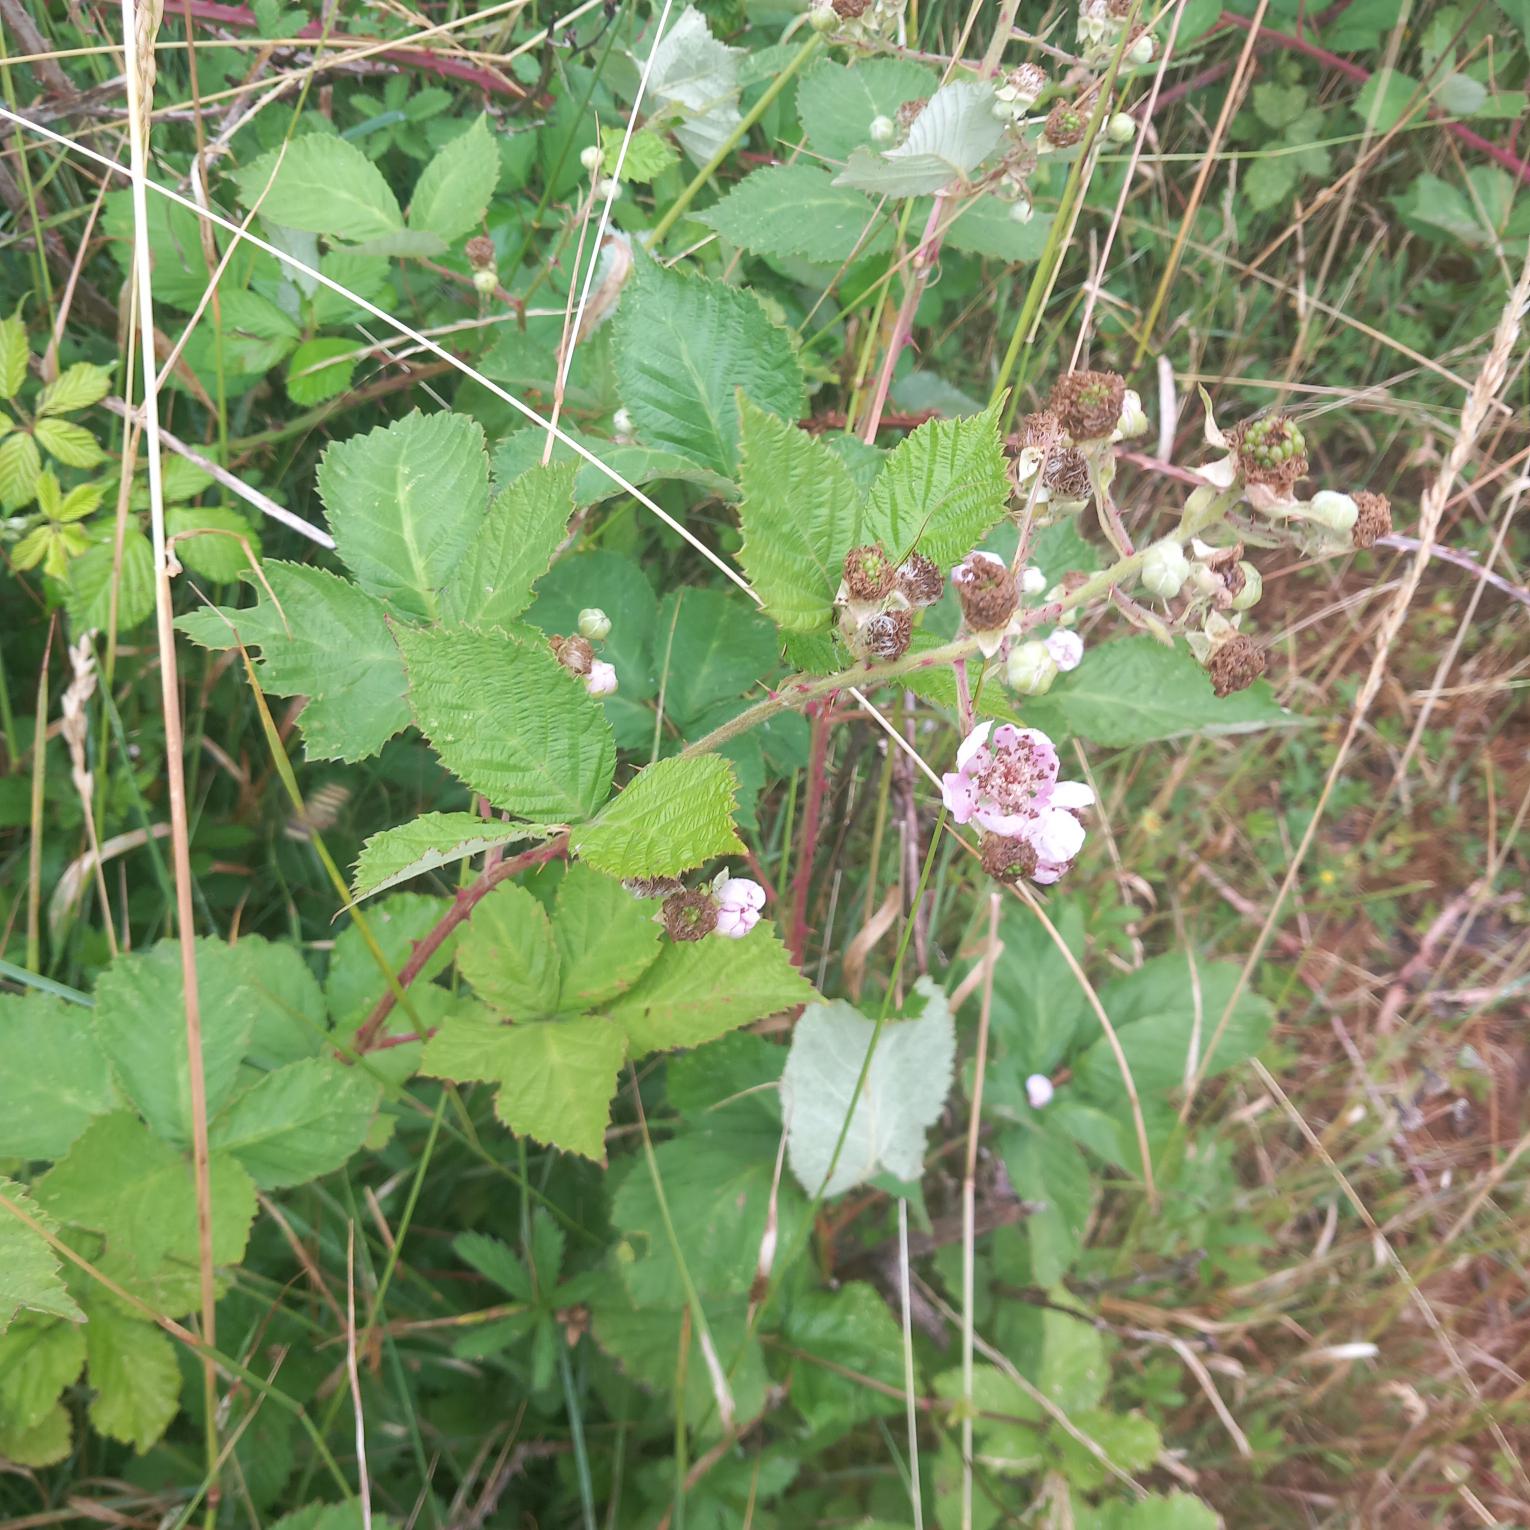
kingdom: Plantae
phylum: Tracheophyta
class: Magnoliopsida
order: Rosales
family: Rosaceae
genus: Rubus
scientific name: Rubus armeniacus
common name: Armensk brombær
